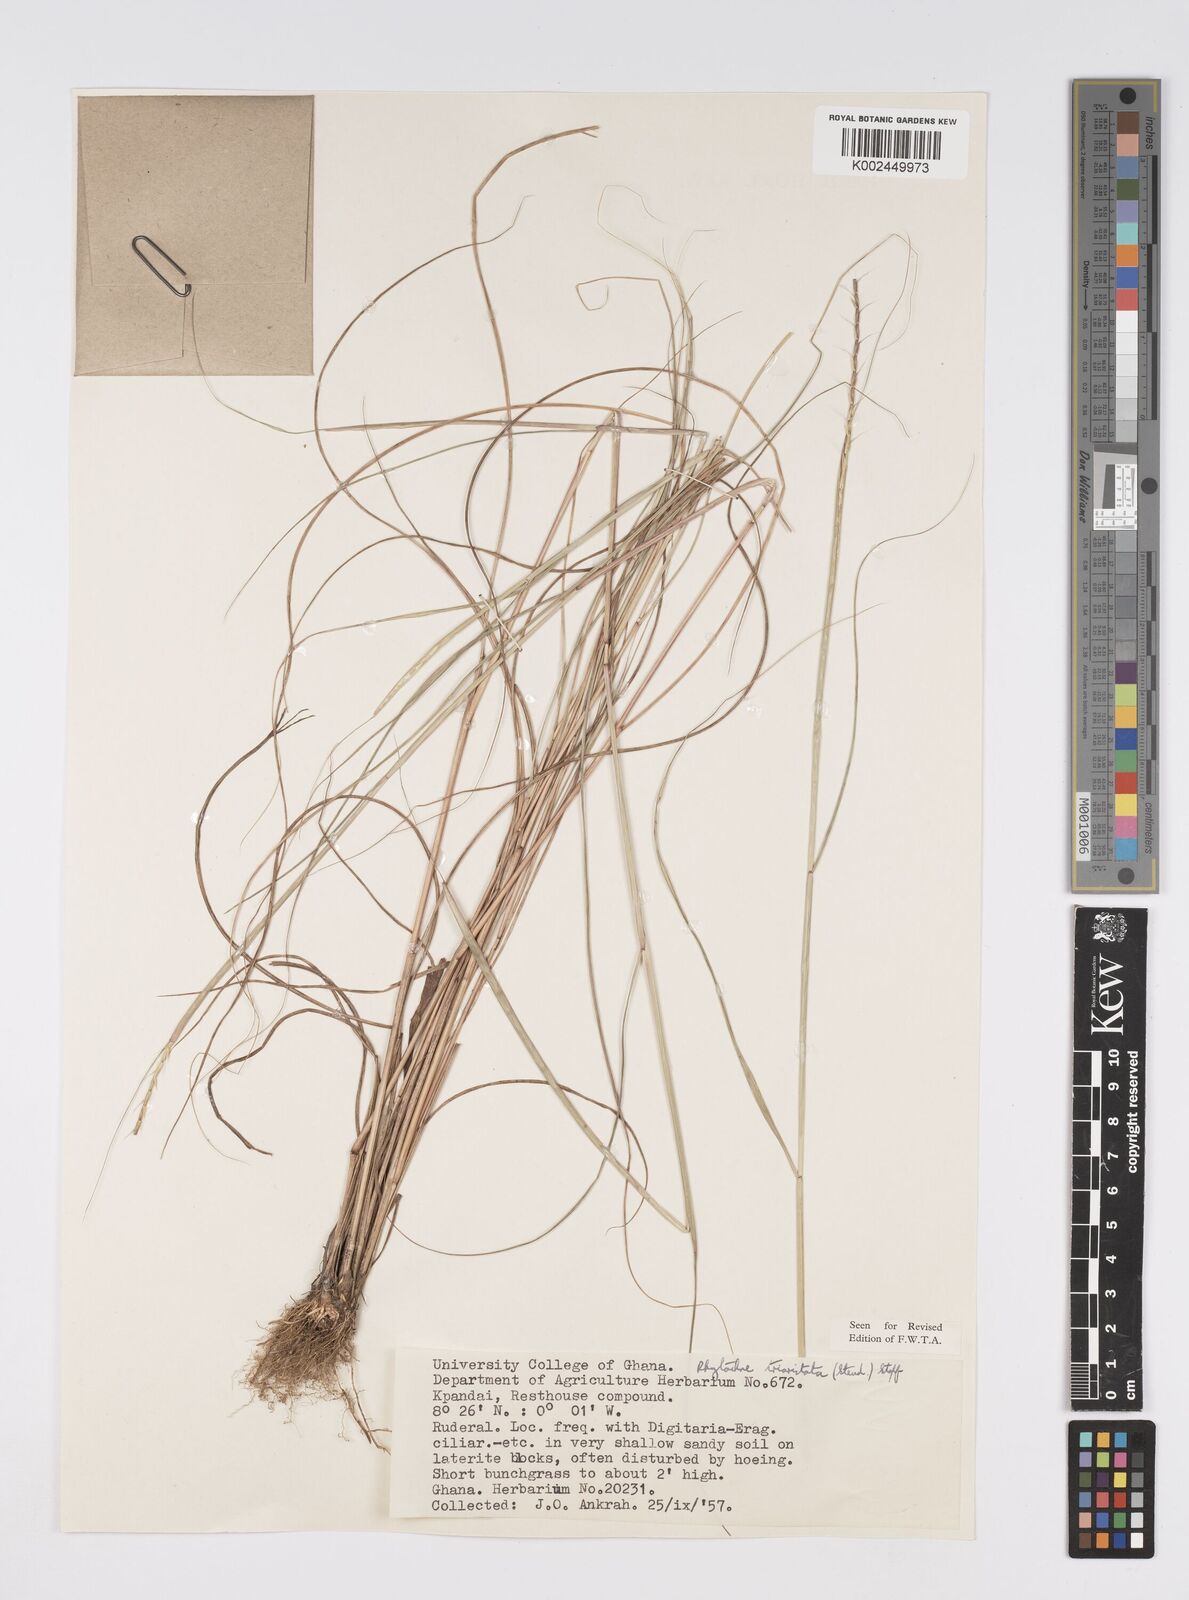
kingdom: Plantae
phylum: Tracheophyta
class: Liliopsida
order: Poales
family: Poaceae
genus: Rhytachne
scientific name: Rhytachne triaristata
